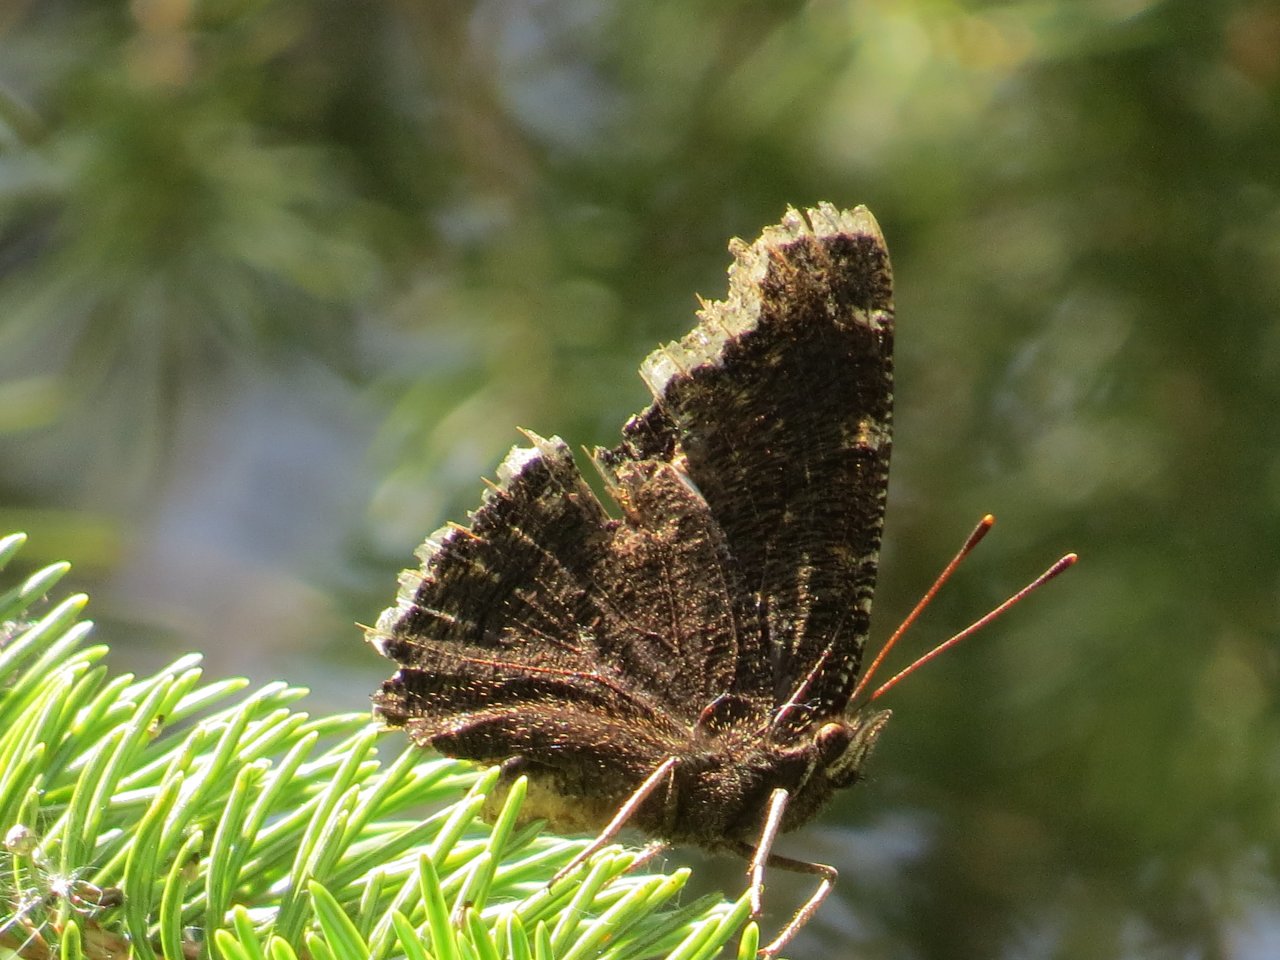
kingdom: Animalia
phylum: Arthropoda
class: Insecta
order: Lepidoptera
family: Nymphalidae
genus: Nymphalis
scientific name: Nymphalis antiopa
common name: Mourning Cloak
